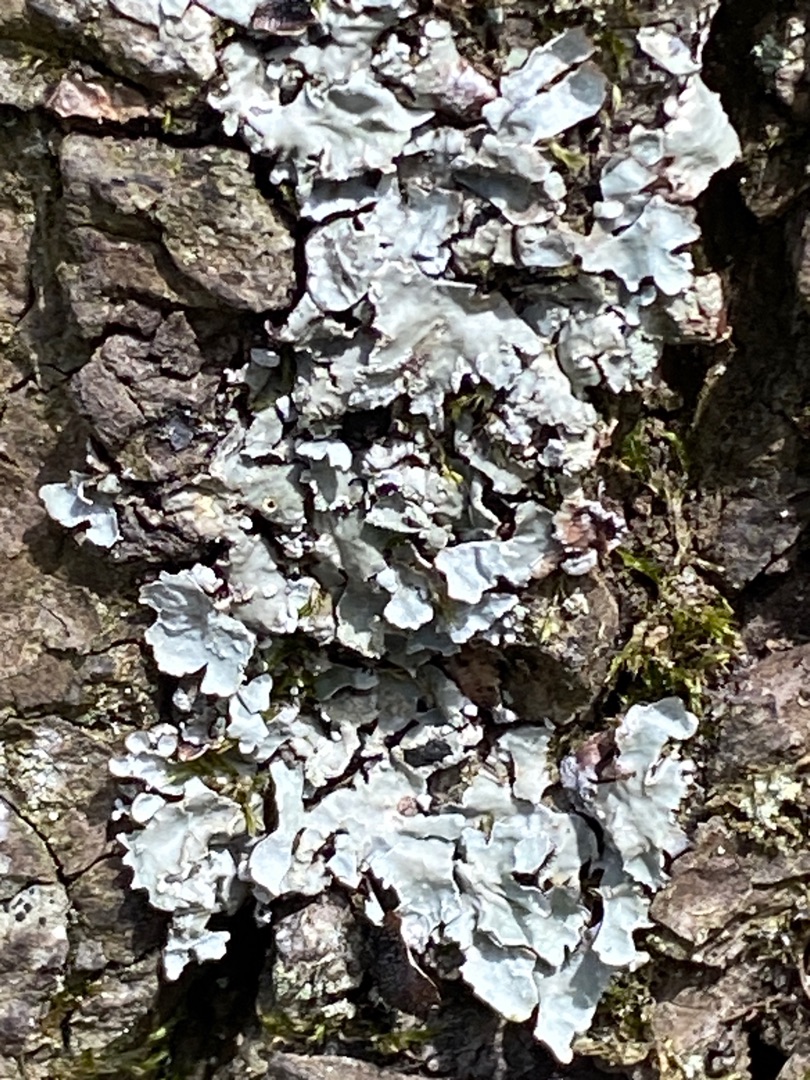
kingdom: Fungi
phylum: Ascomycota
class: Lecanoromycetes
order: Lecanorales
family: Parmeliaceae
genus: Parmelia
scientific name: Parmelia sulcata
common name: Rynket skållav
